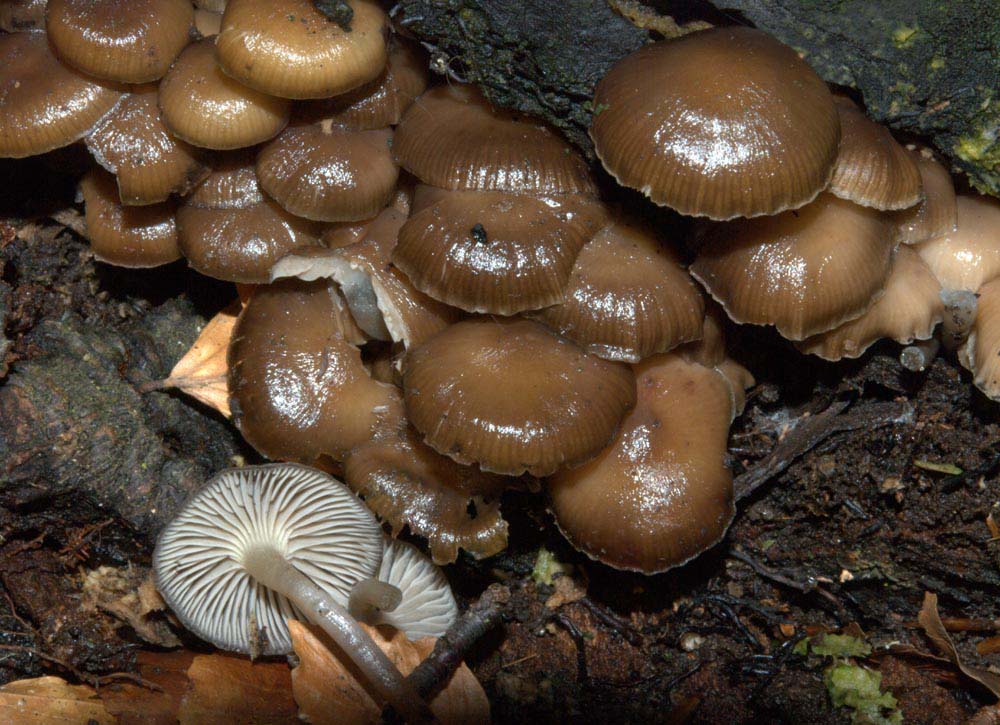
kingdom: Fungi
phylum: Basidiomycota
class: Agaricomycetes
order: Agaricales
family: Mycenaceae
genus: Mycena
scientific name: Mycena tintinnabulum
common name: vinter-huesvamp
